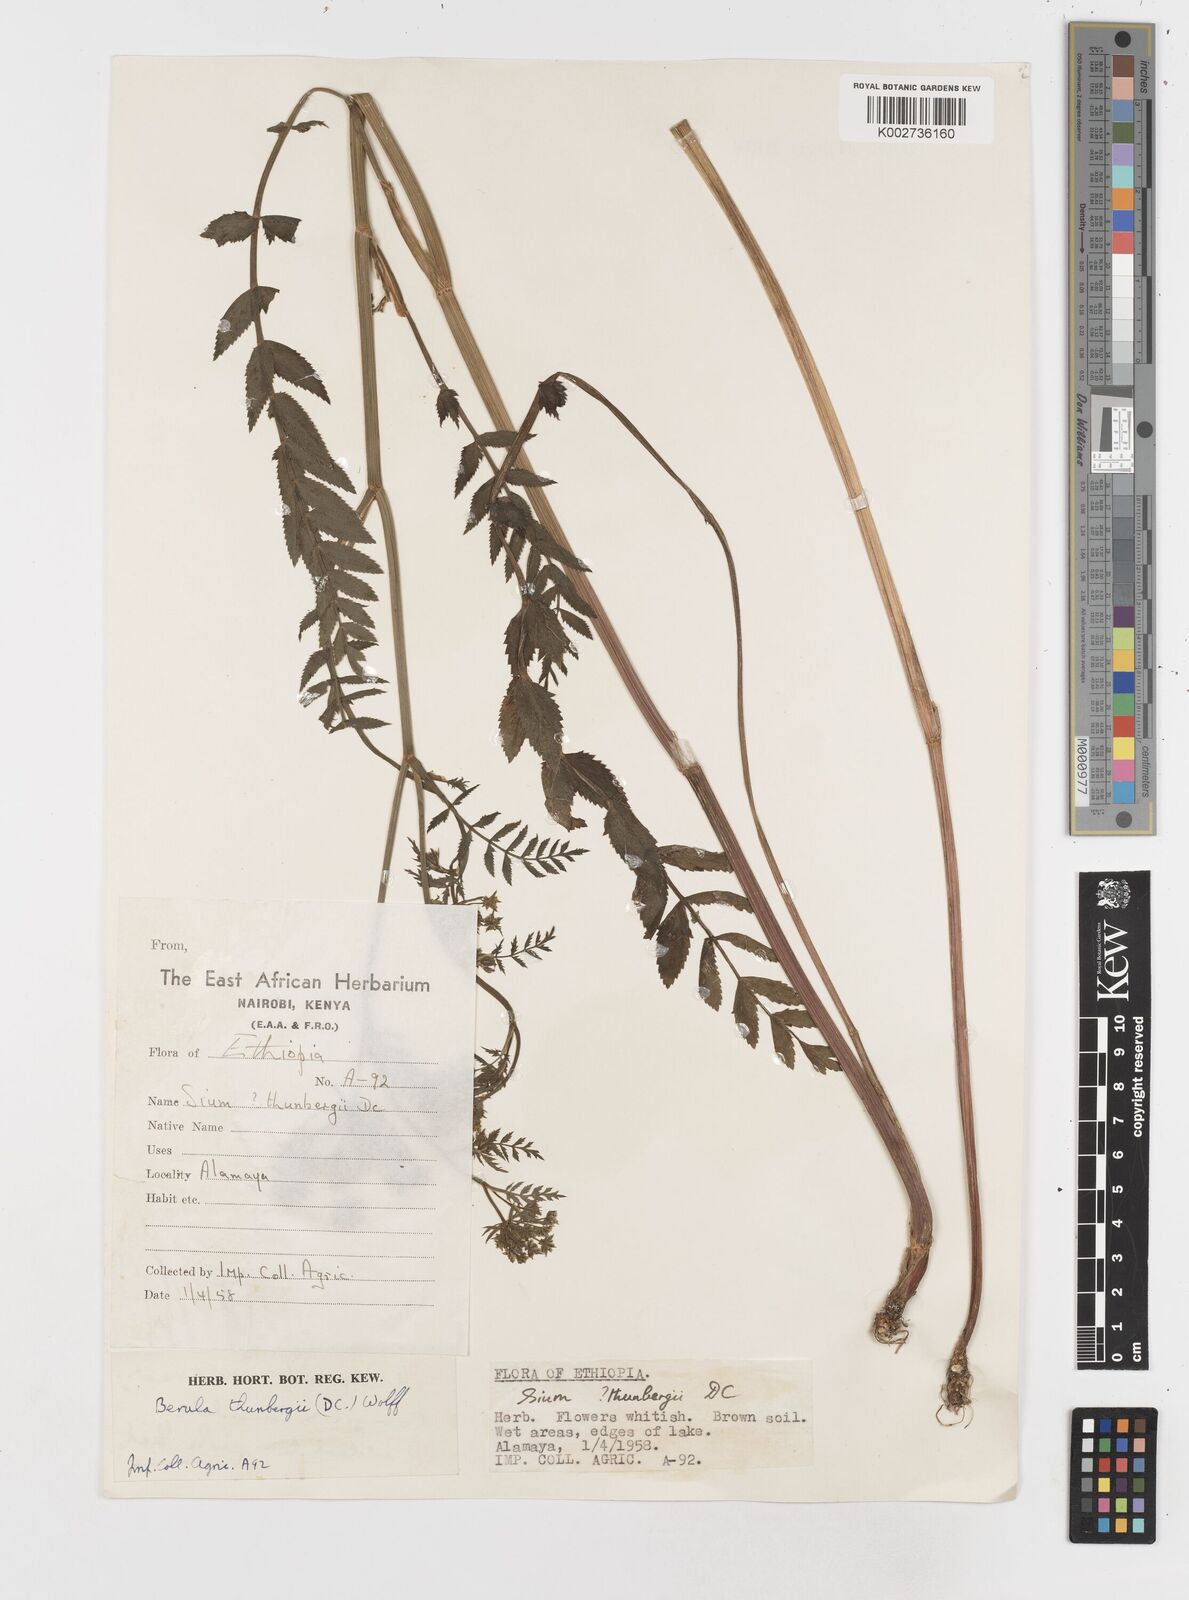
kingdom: Plantae
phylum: Tracheophyta
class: Magnoliopsida
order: Apiales
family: Apiaceae
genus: Berula
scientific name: Berula erecta
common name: Lesser water-parsnip
